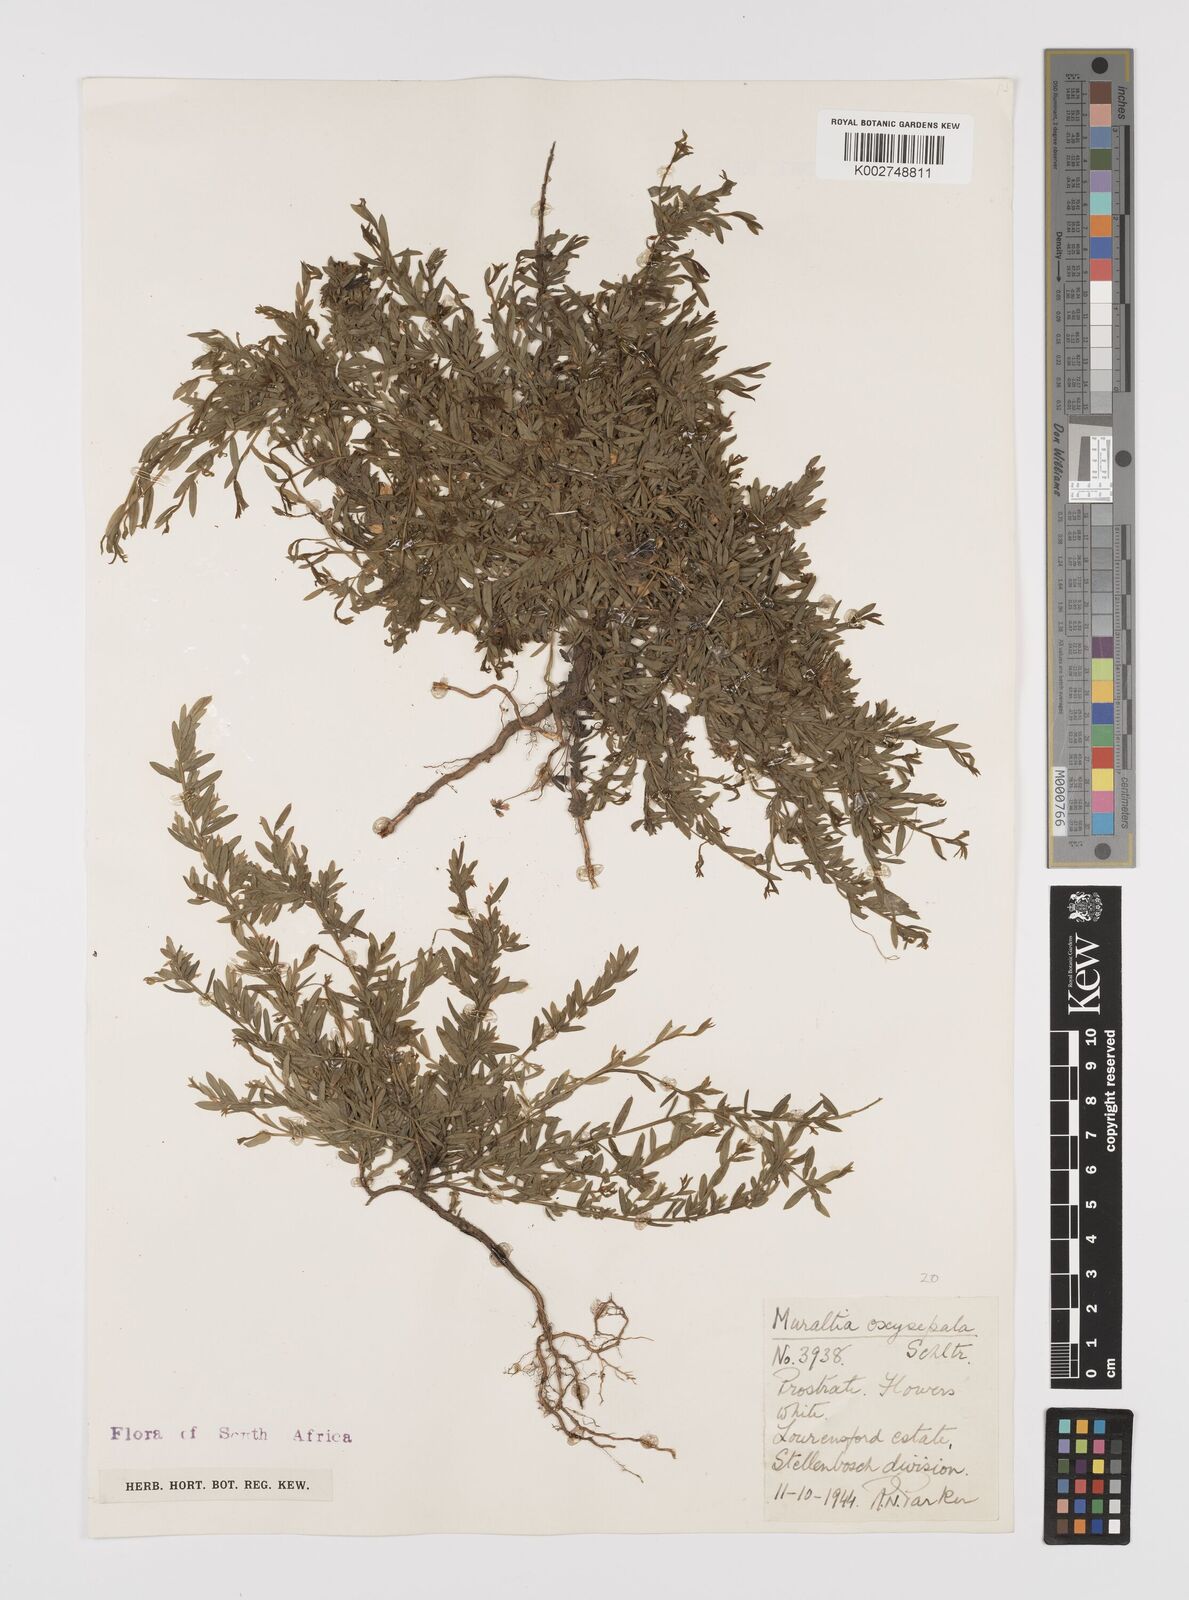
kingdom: Plantae
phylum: Tracheophyta
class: Magnoliopsida
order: Fabales
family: Polygalaceae
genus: Muraltia
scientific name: Muraltia oxysepala
